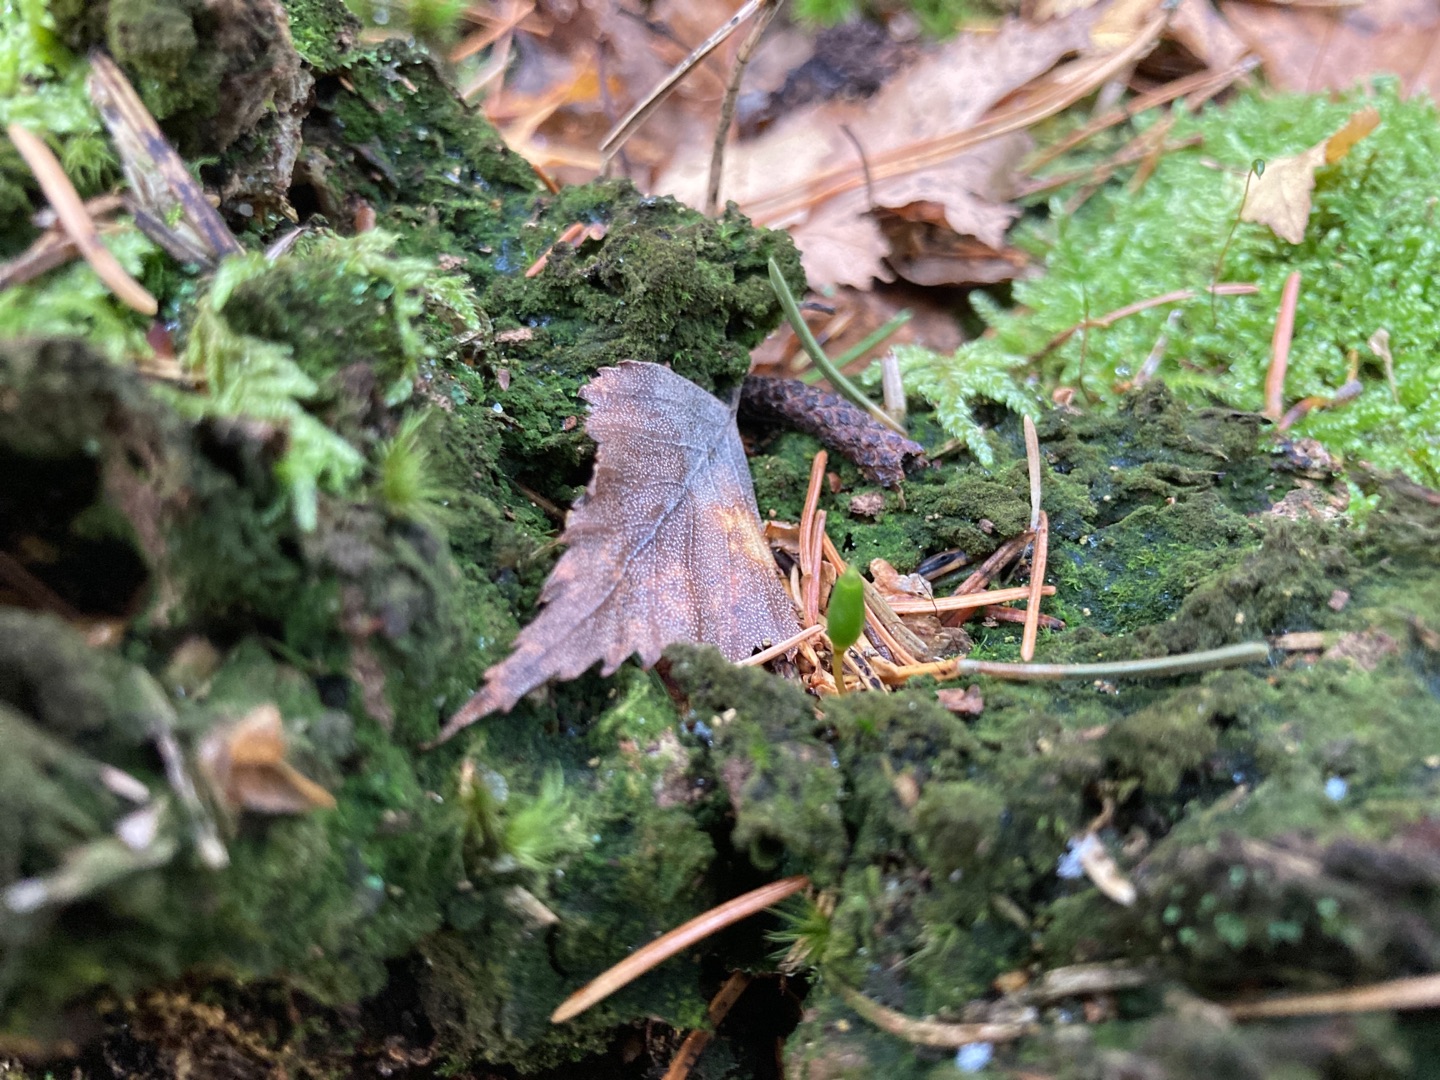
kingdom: Plantae
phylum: Bryophyta
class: Bryopsida
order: Buxbaumiales
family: Buxbaumiaceae
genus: Buxbaumia
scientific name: Buxbaumia viridis
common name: Grøn buxbaumia
